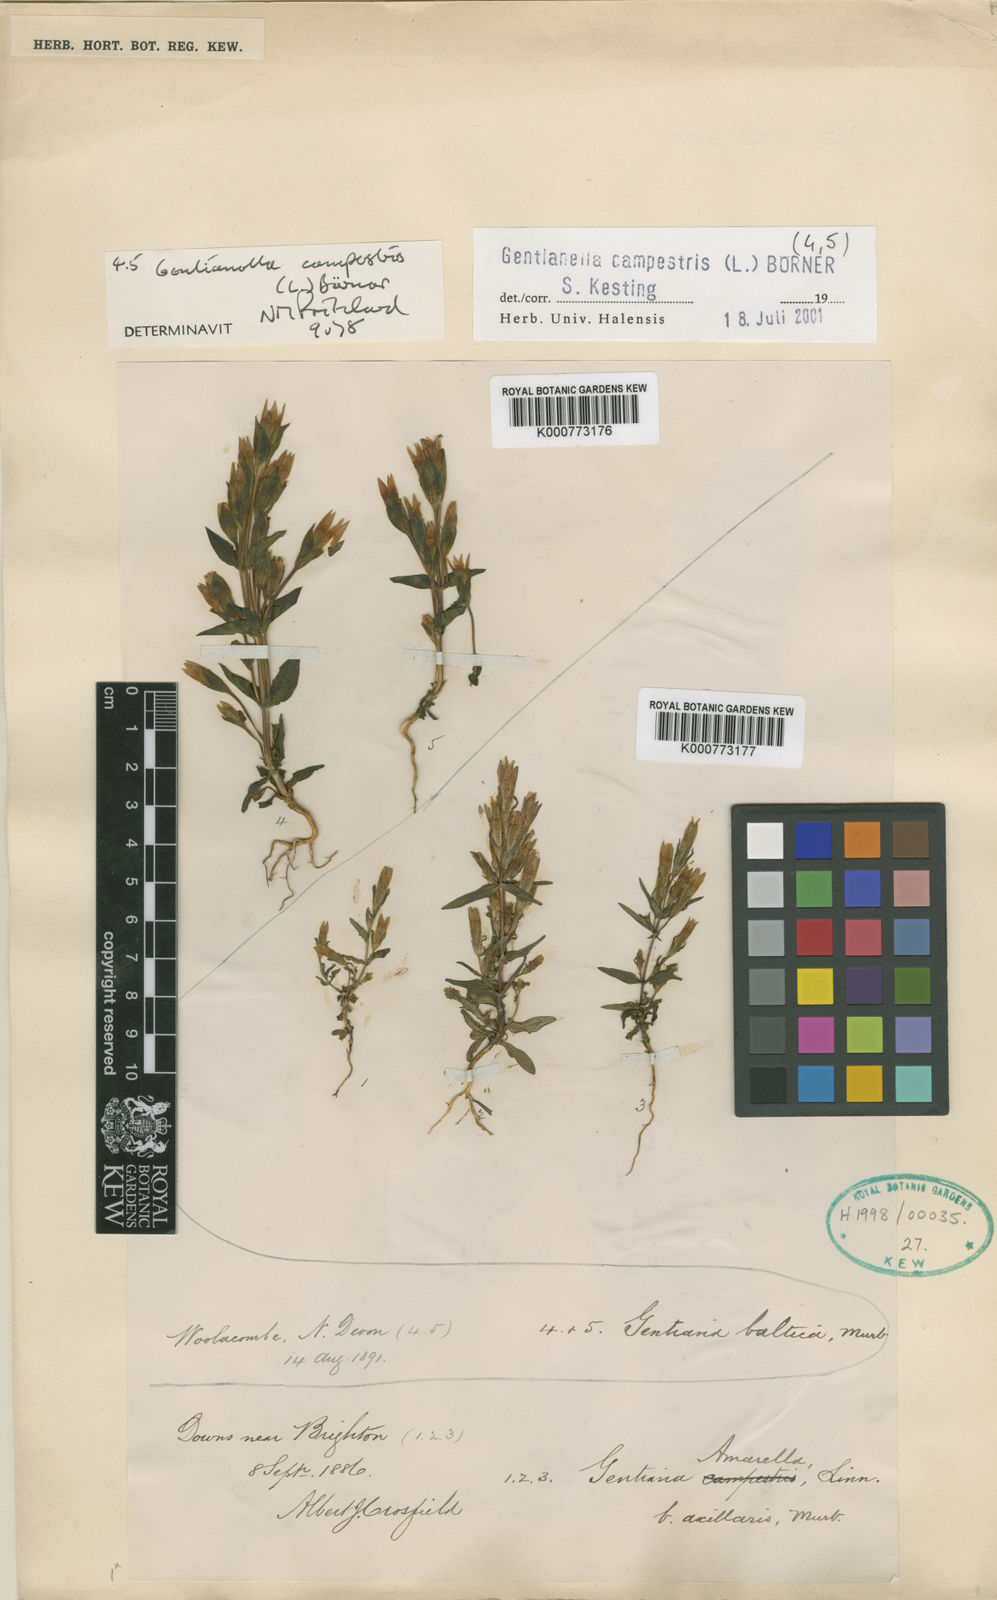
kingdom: Plantae
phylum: Tracheophyta
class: Magnoliopsida
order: Gentianales
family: Gentianaceae
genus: Gentianella
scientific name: Gentianella
